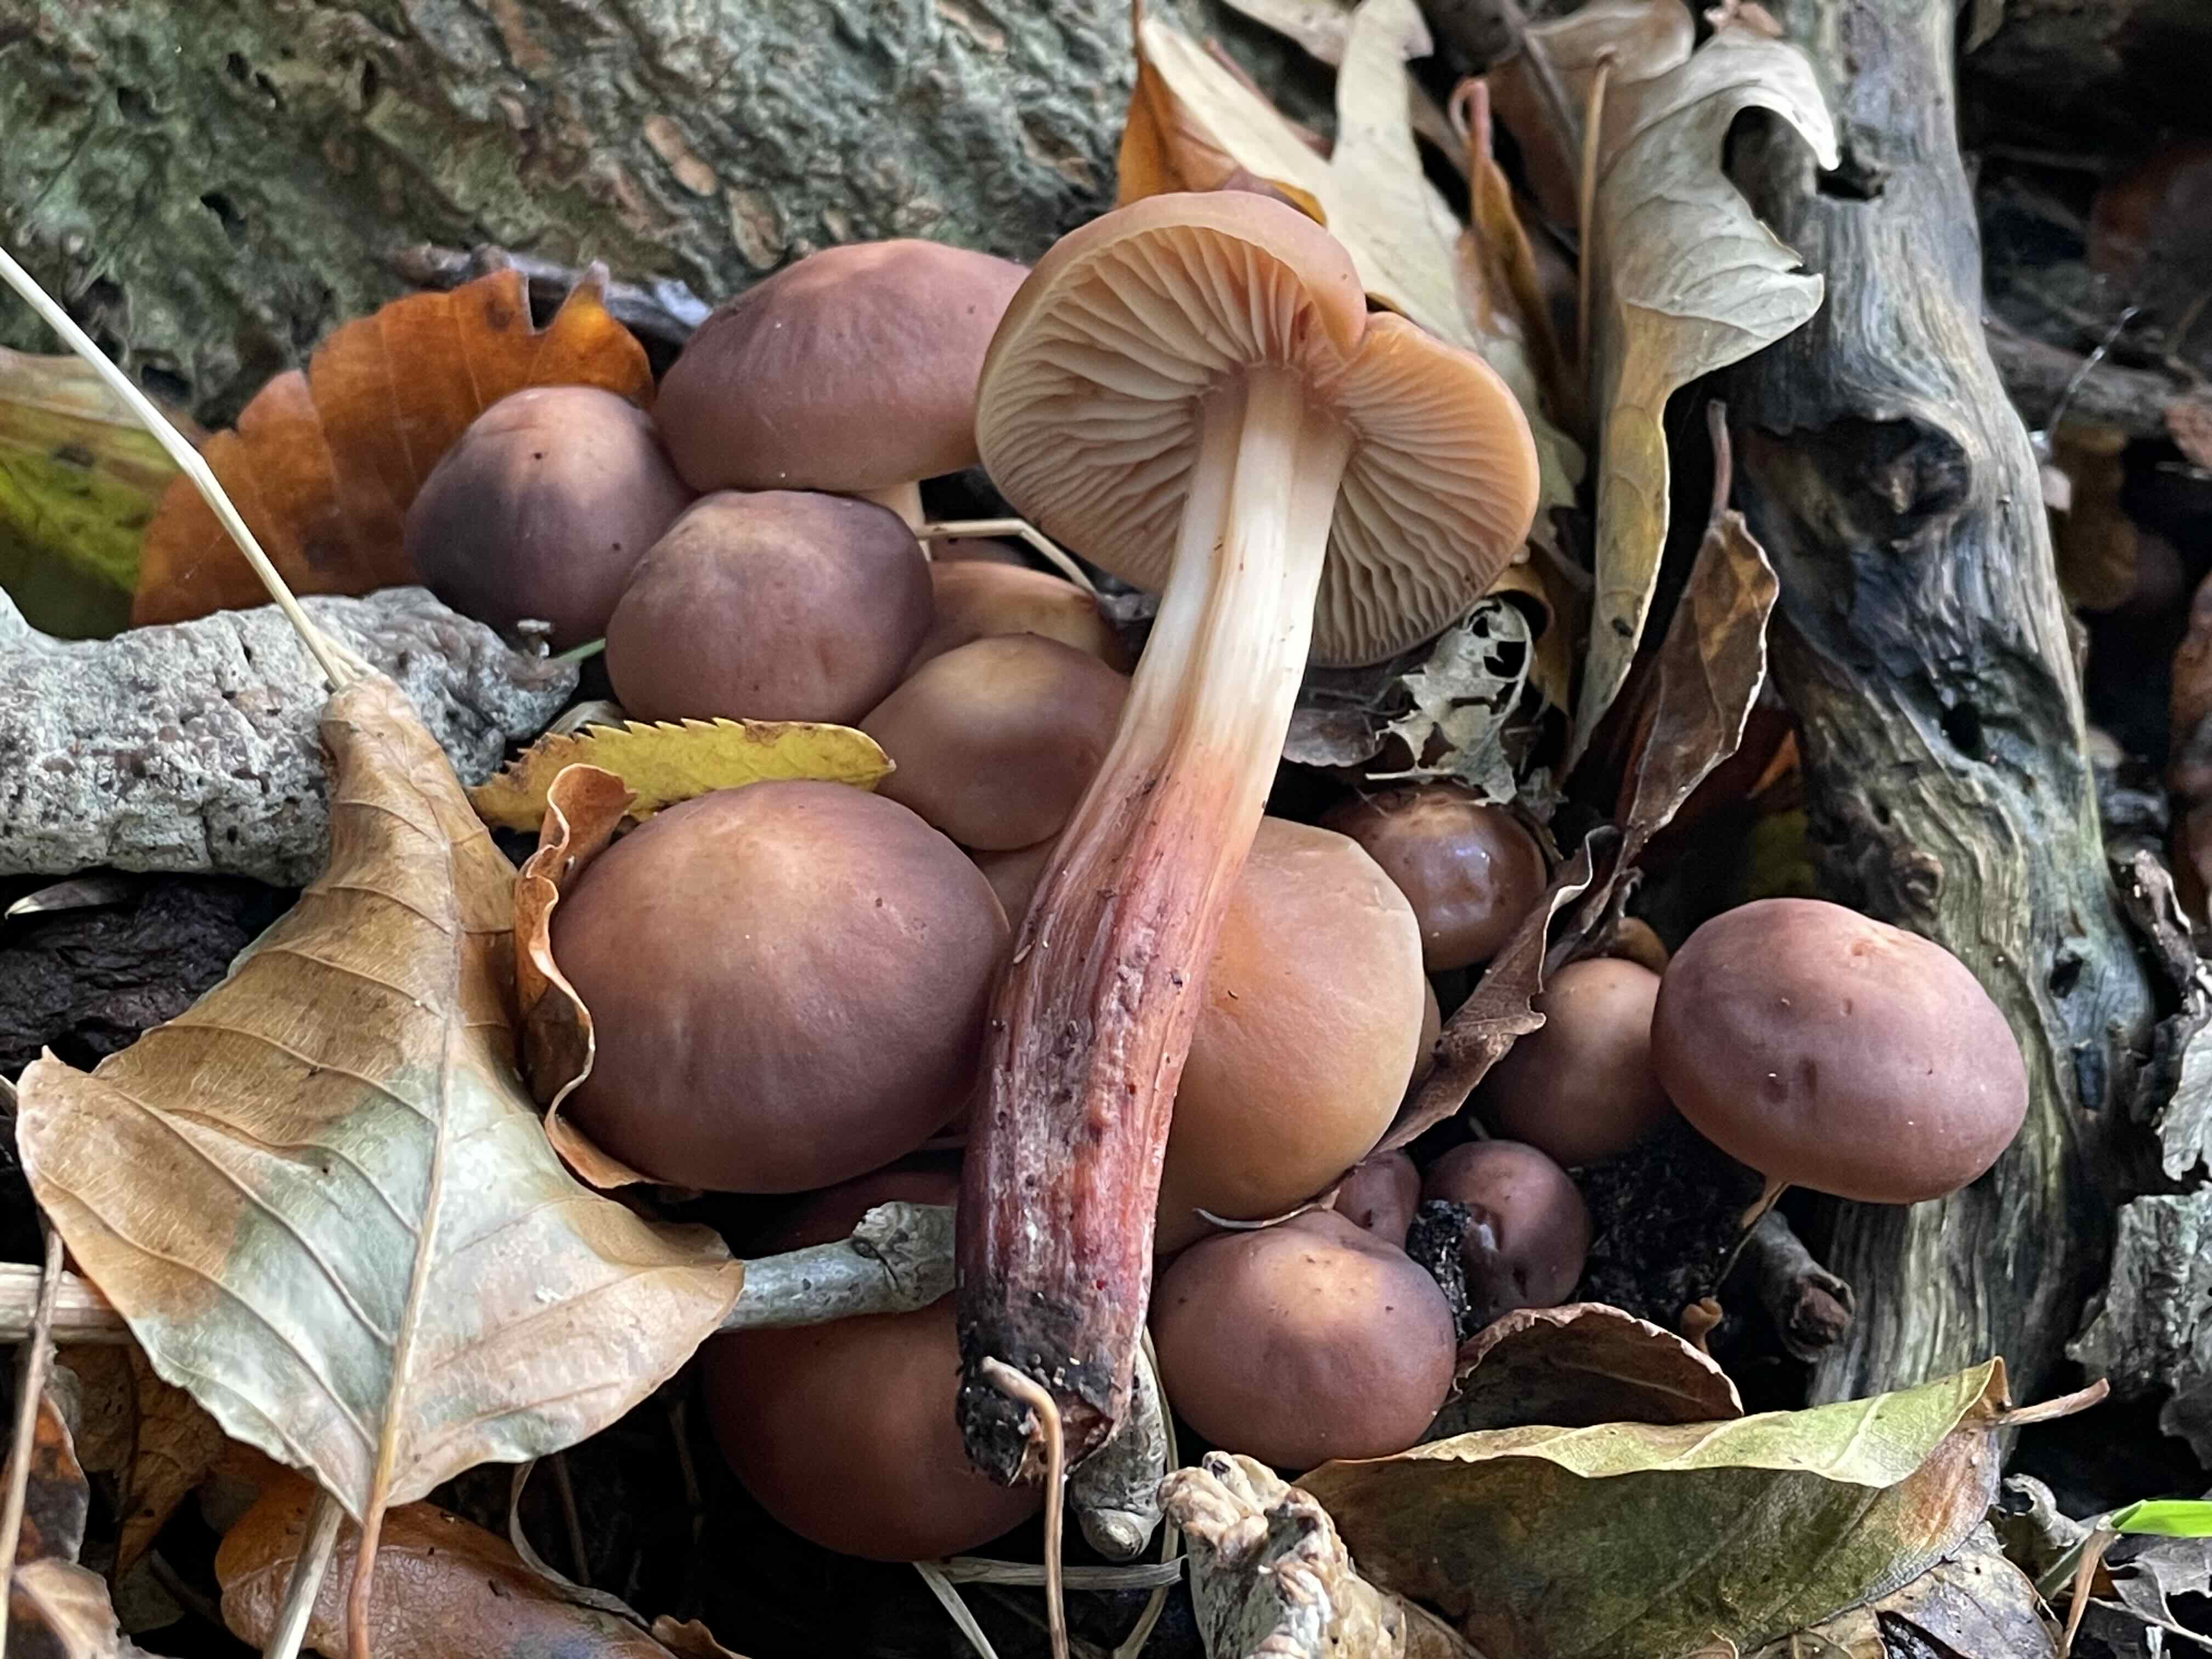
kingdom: Fungi
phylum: Basidiomycota
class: Agaricomycetes
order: Agaricales
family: Omphalotaceae
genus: Gymnopus
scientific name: Gymnopus fusipes
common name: tenstokket fladhat
